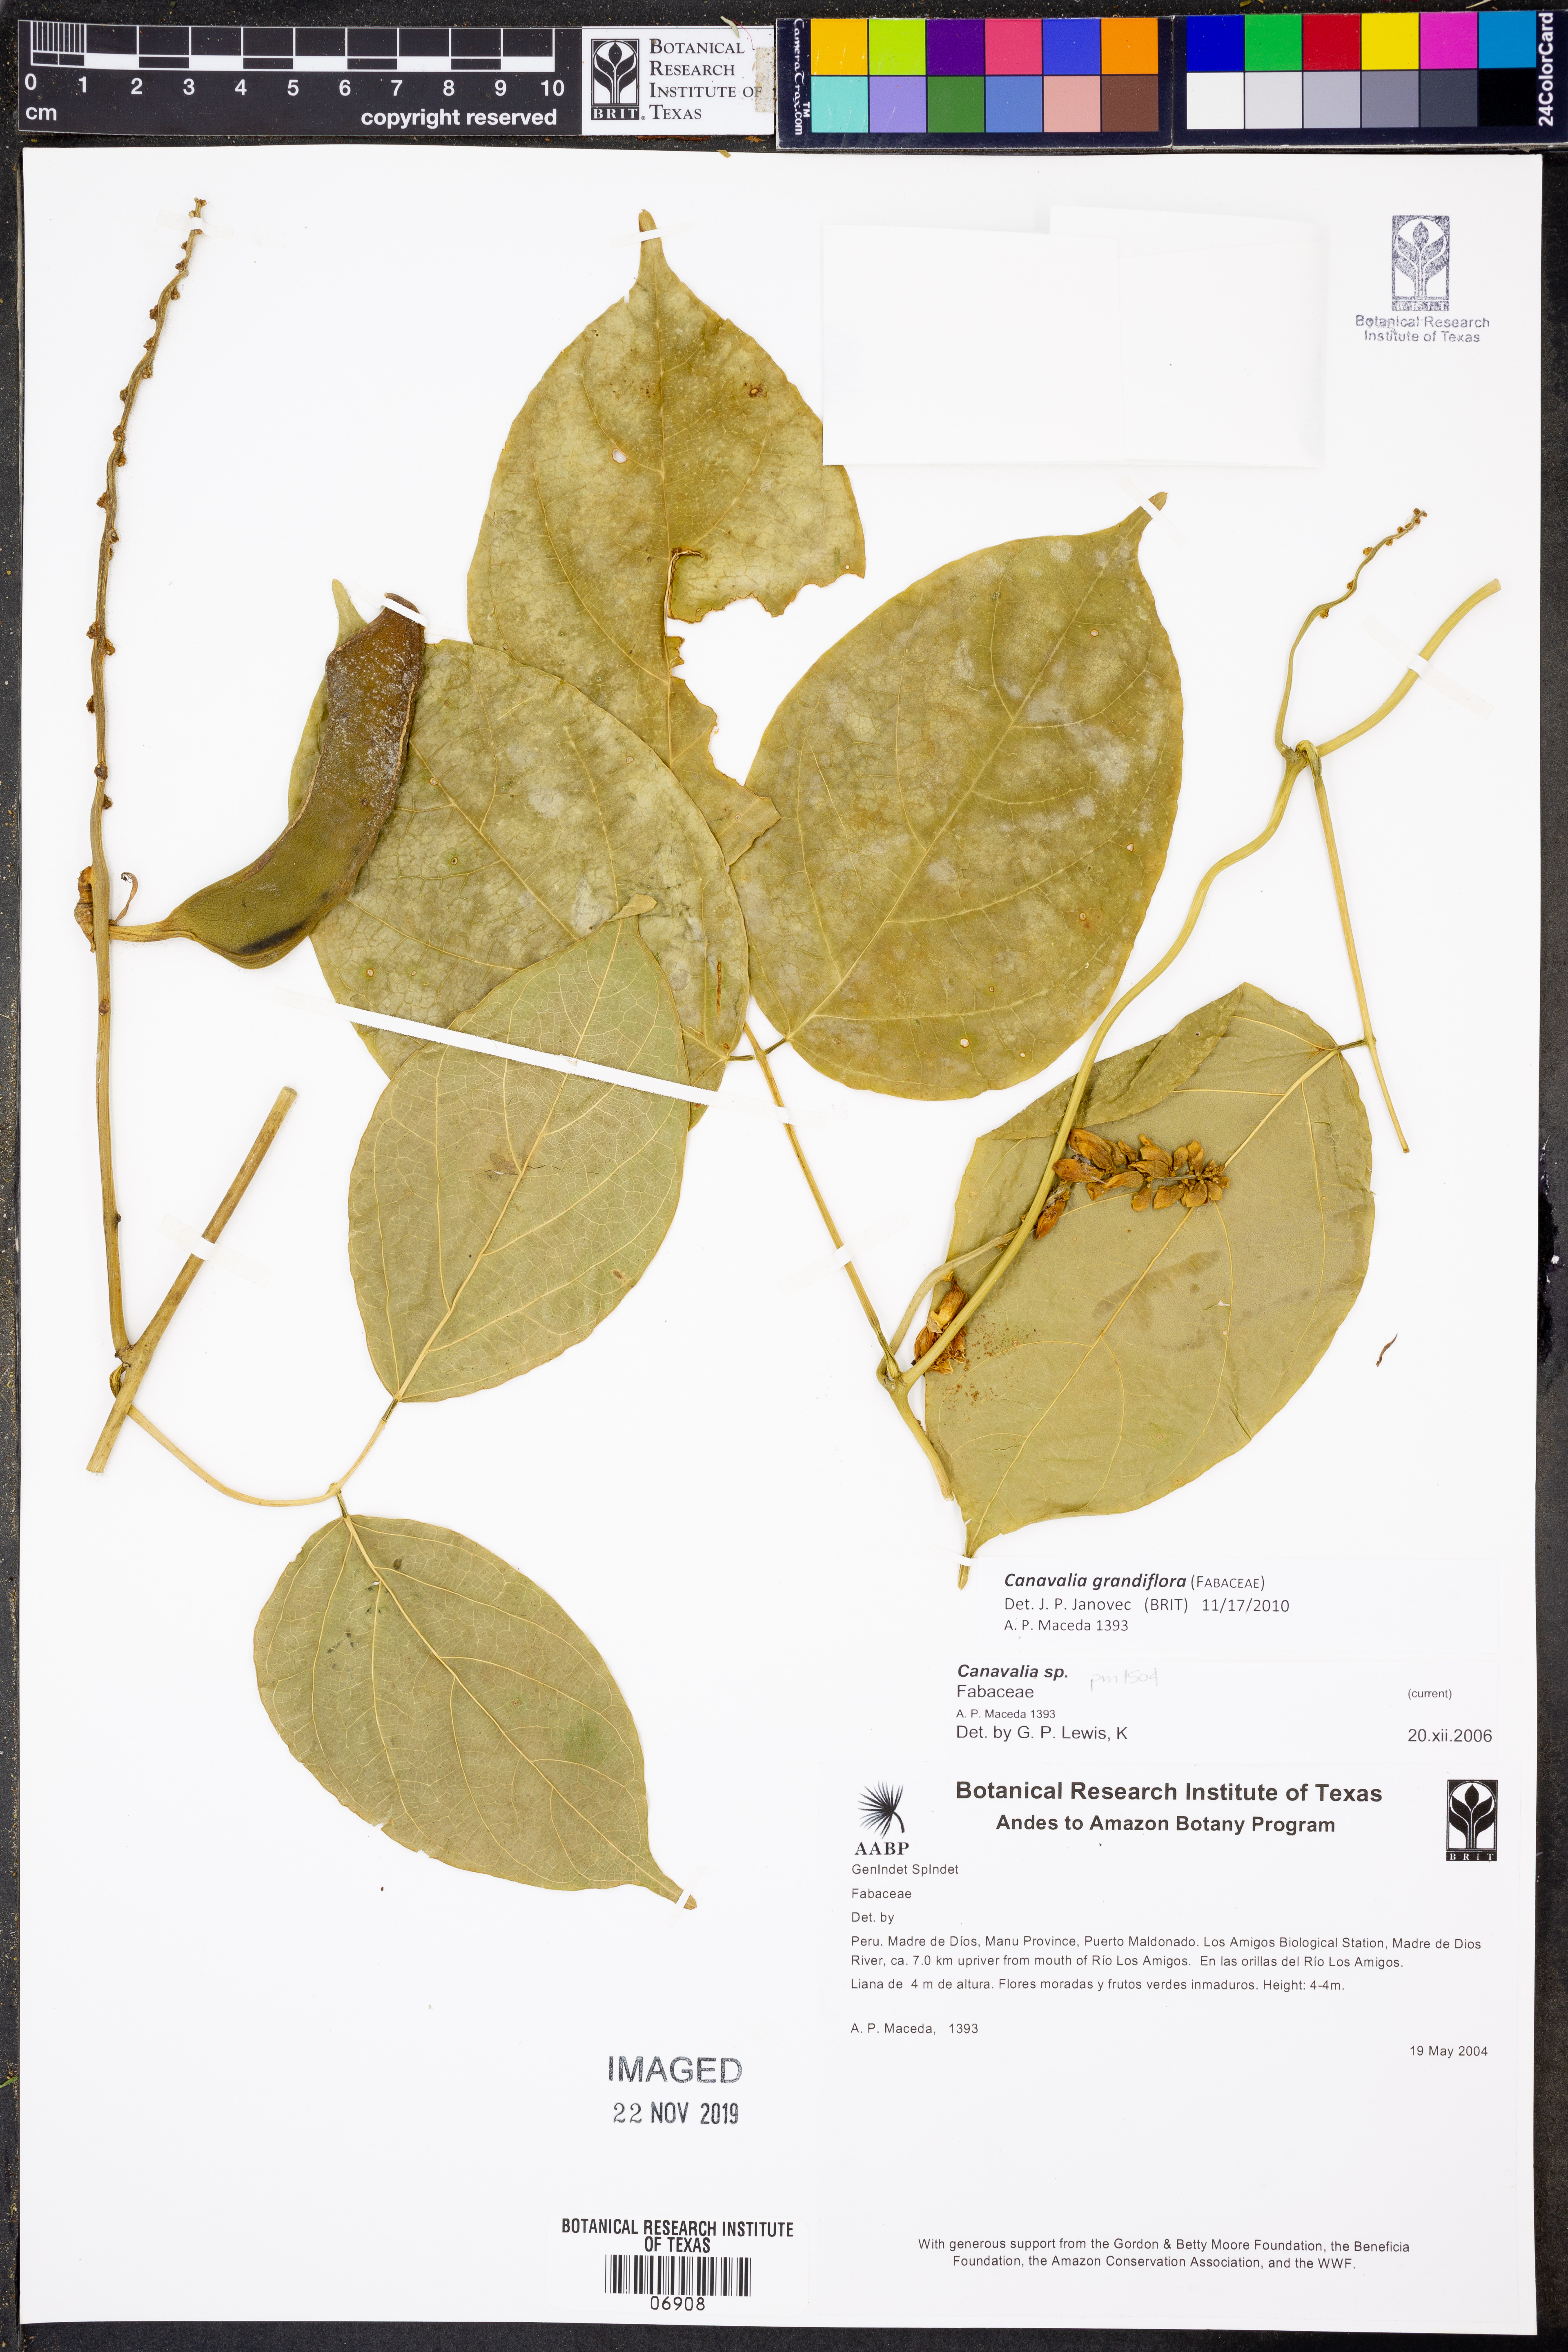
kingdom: Plantae
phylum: Tracheophyta
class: Magnoliopsida
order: Fabales
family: Fabaceae
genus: Canavalia
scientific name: Canavalia
